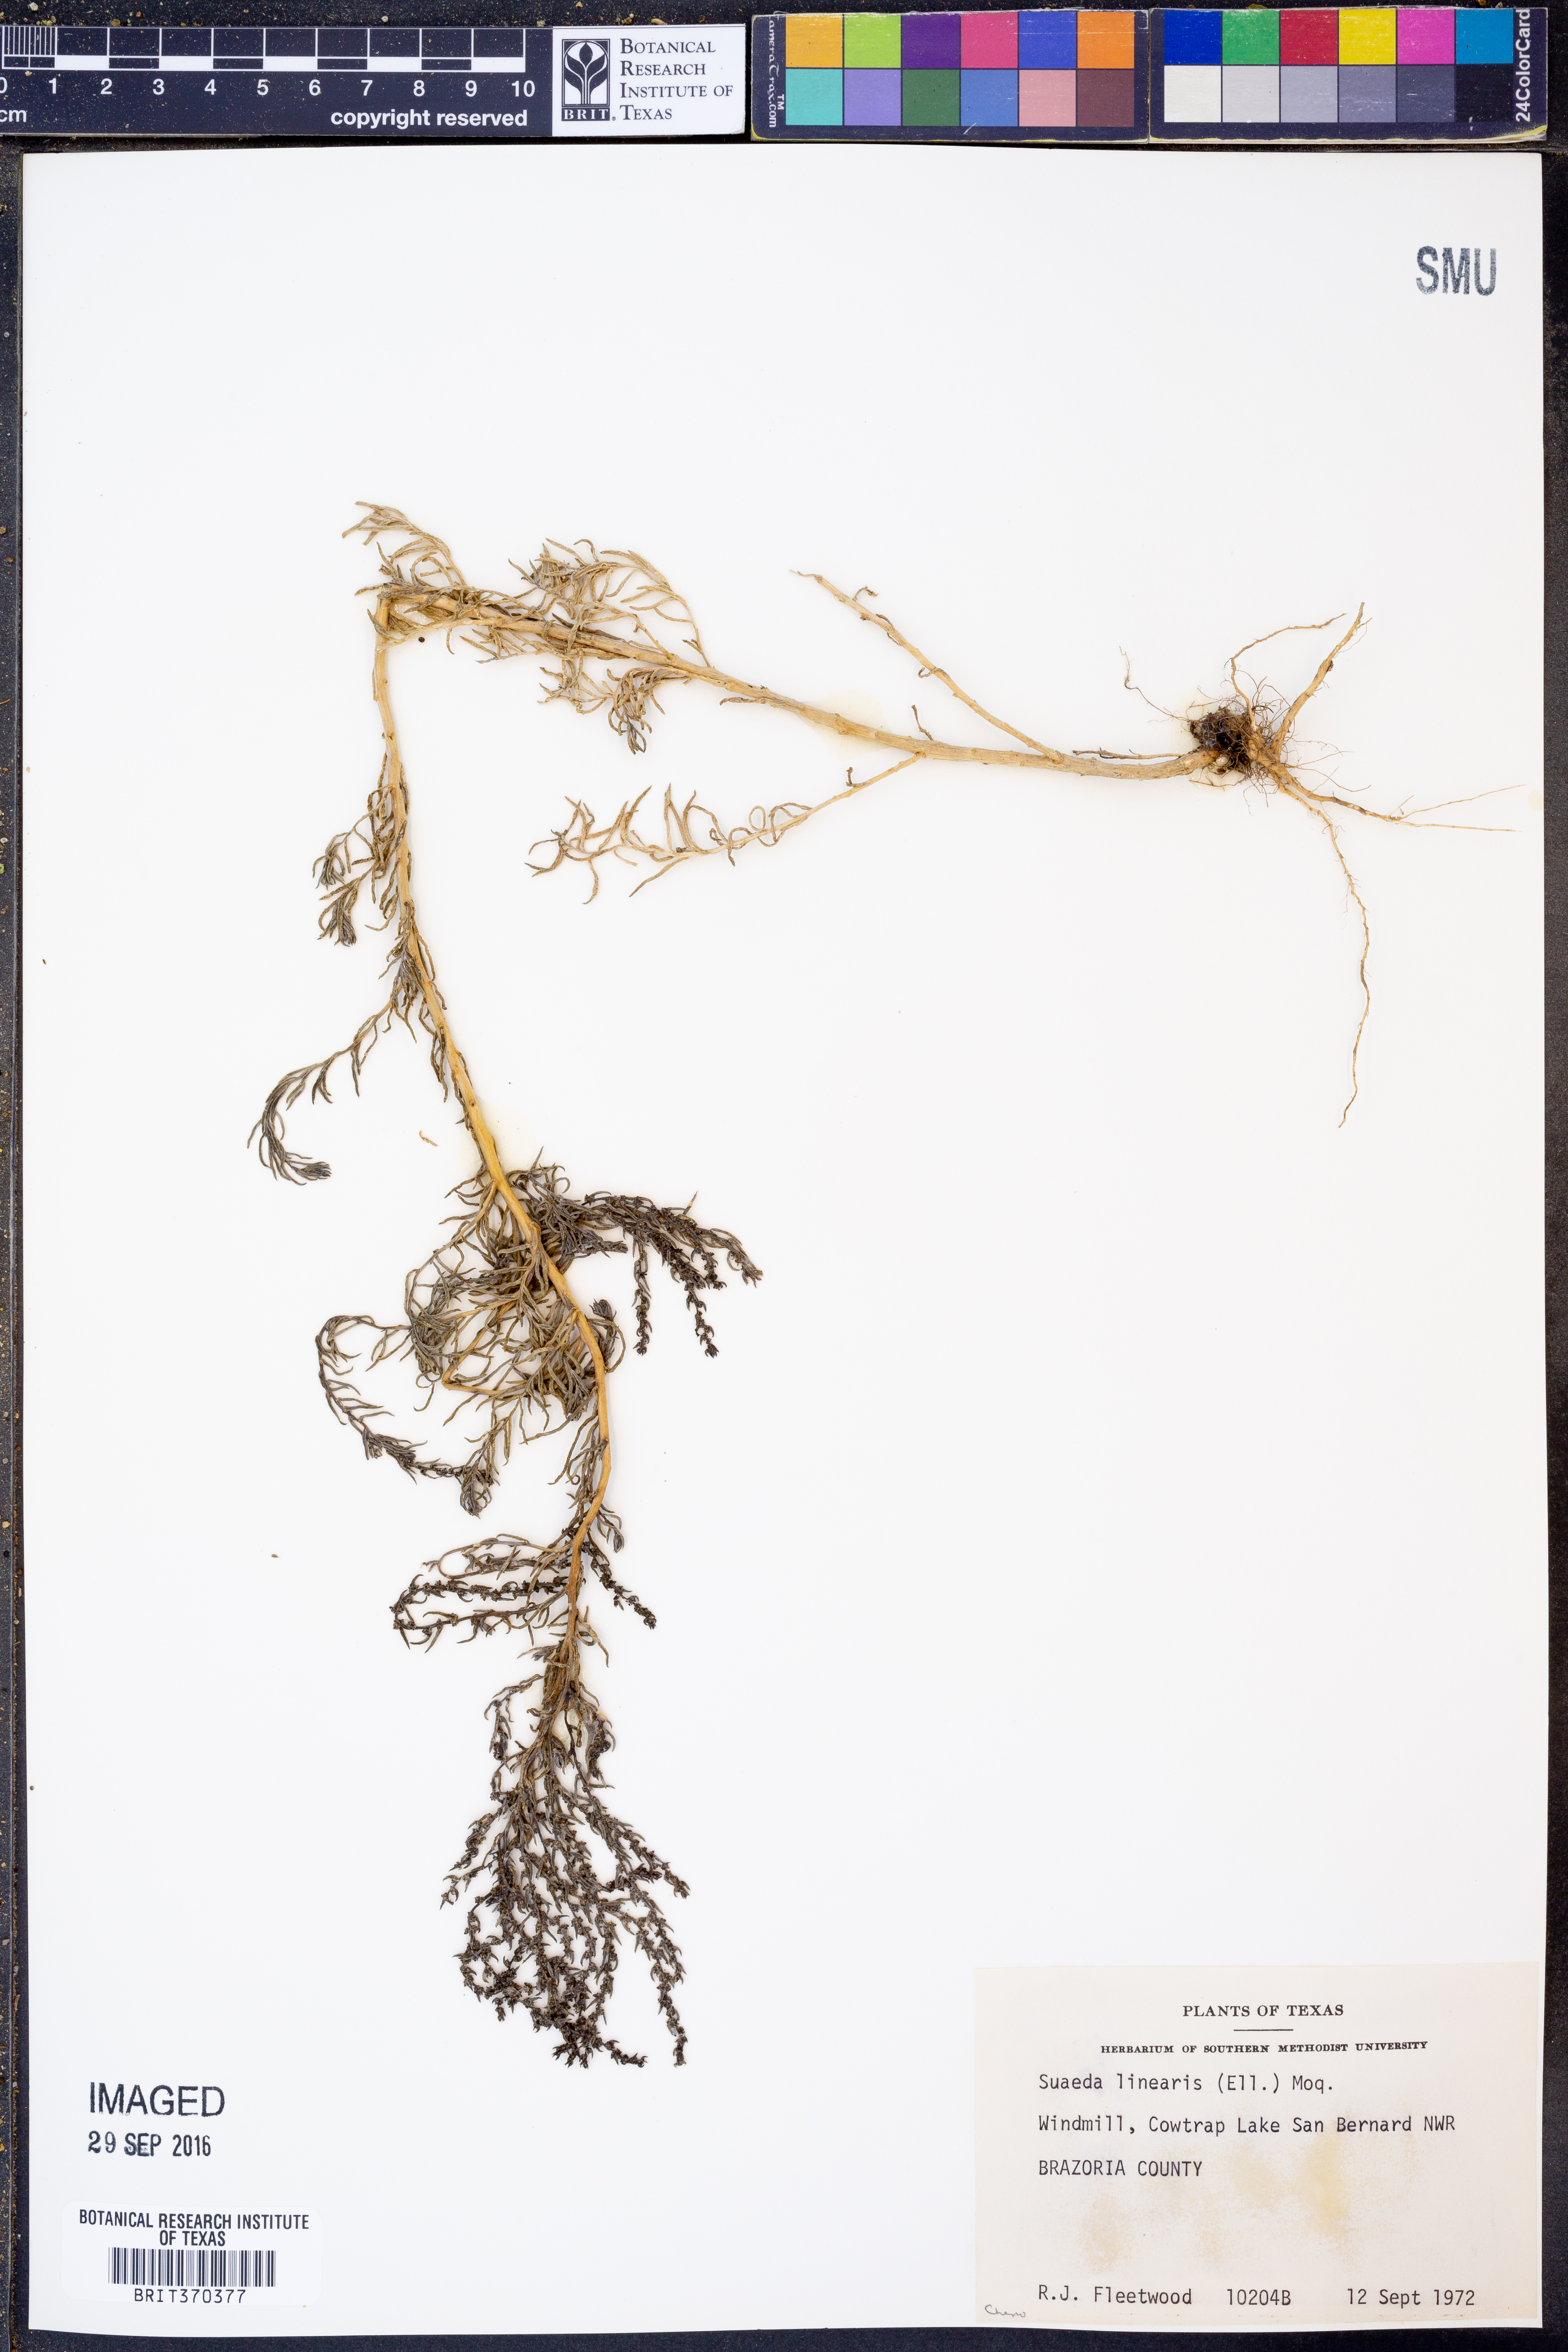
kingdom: Plantae
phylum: Tracheophyta
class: Magnoliopsida
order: Caryophyllales
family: Amaranthaceae
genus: Suaeda
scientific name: Suaeda linearis
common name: Annual seepweed
